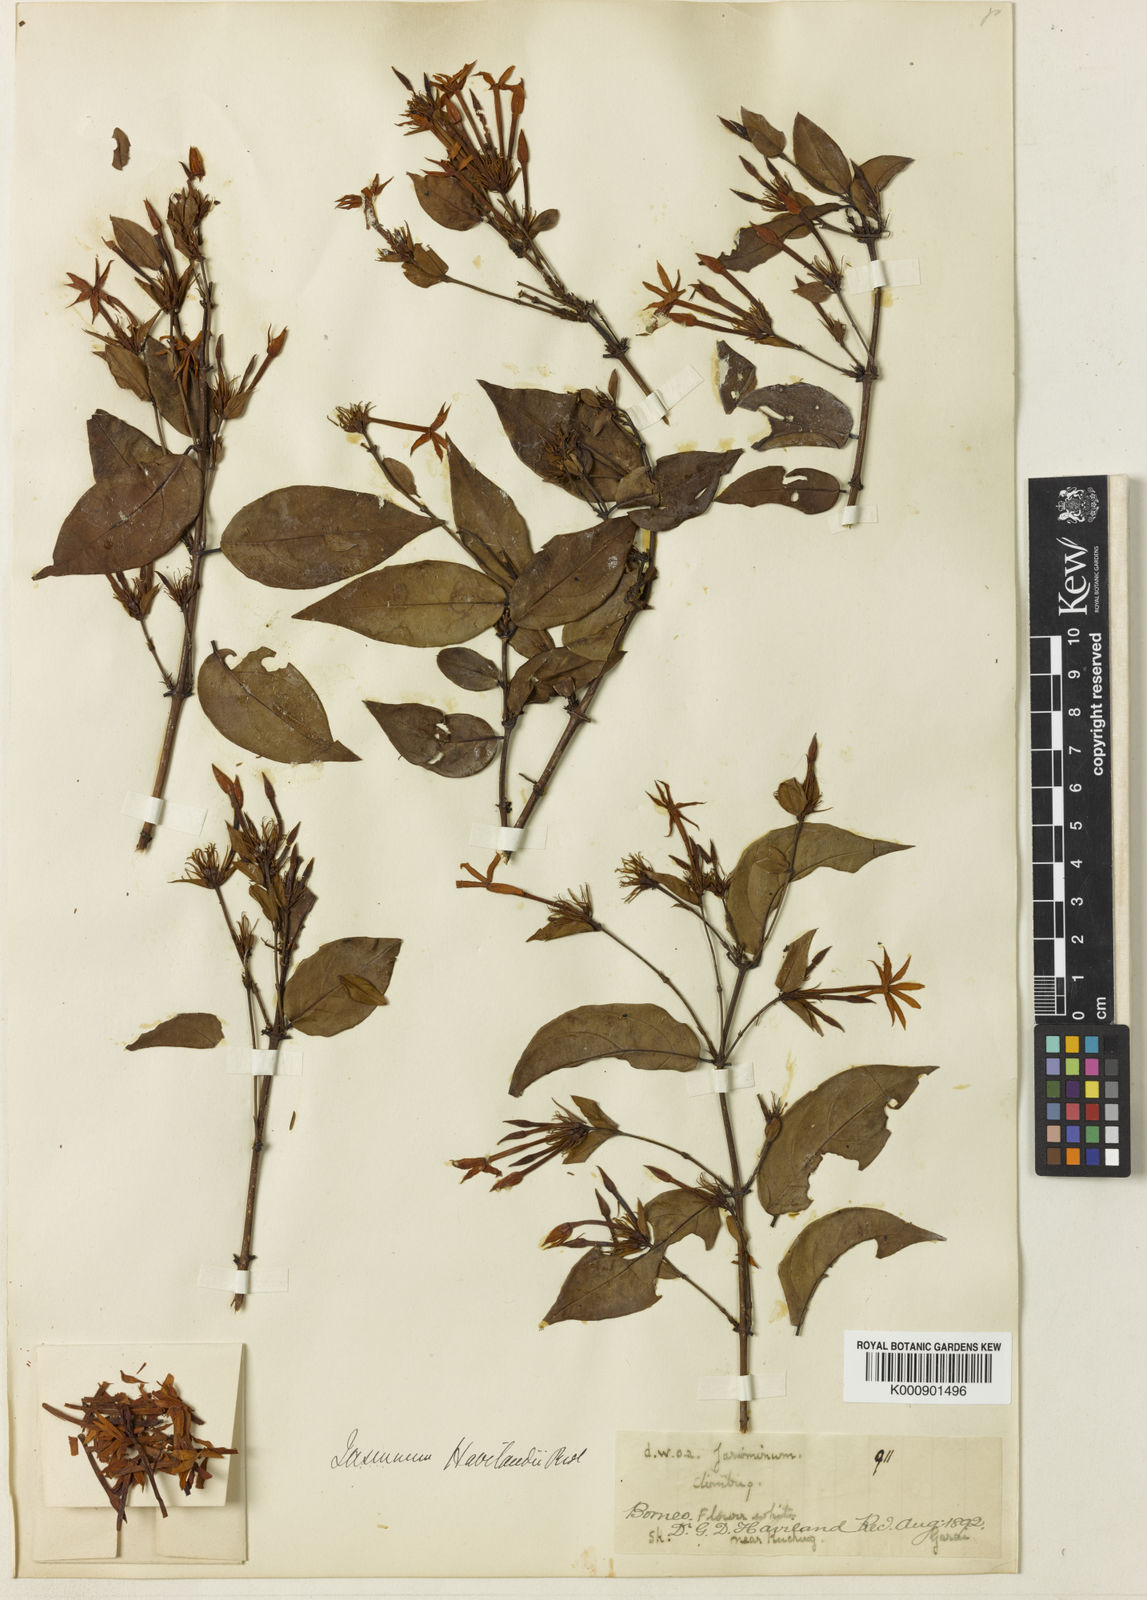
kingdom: Plantae
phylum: Tracheophyta
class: Magnoliopsida
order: Lamiales
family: Oleaceae
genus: Jasminum
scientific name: Jasminum
